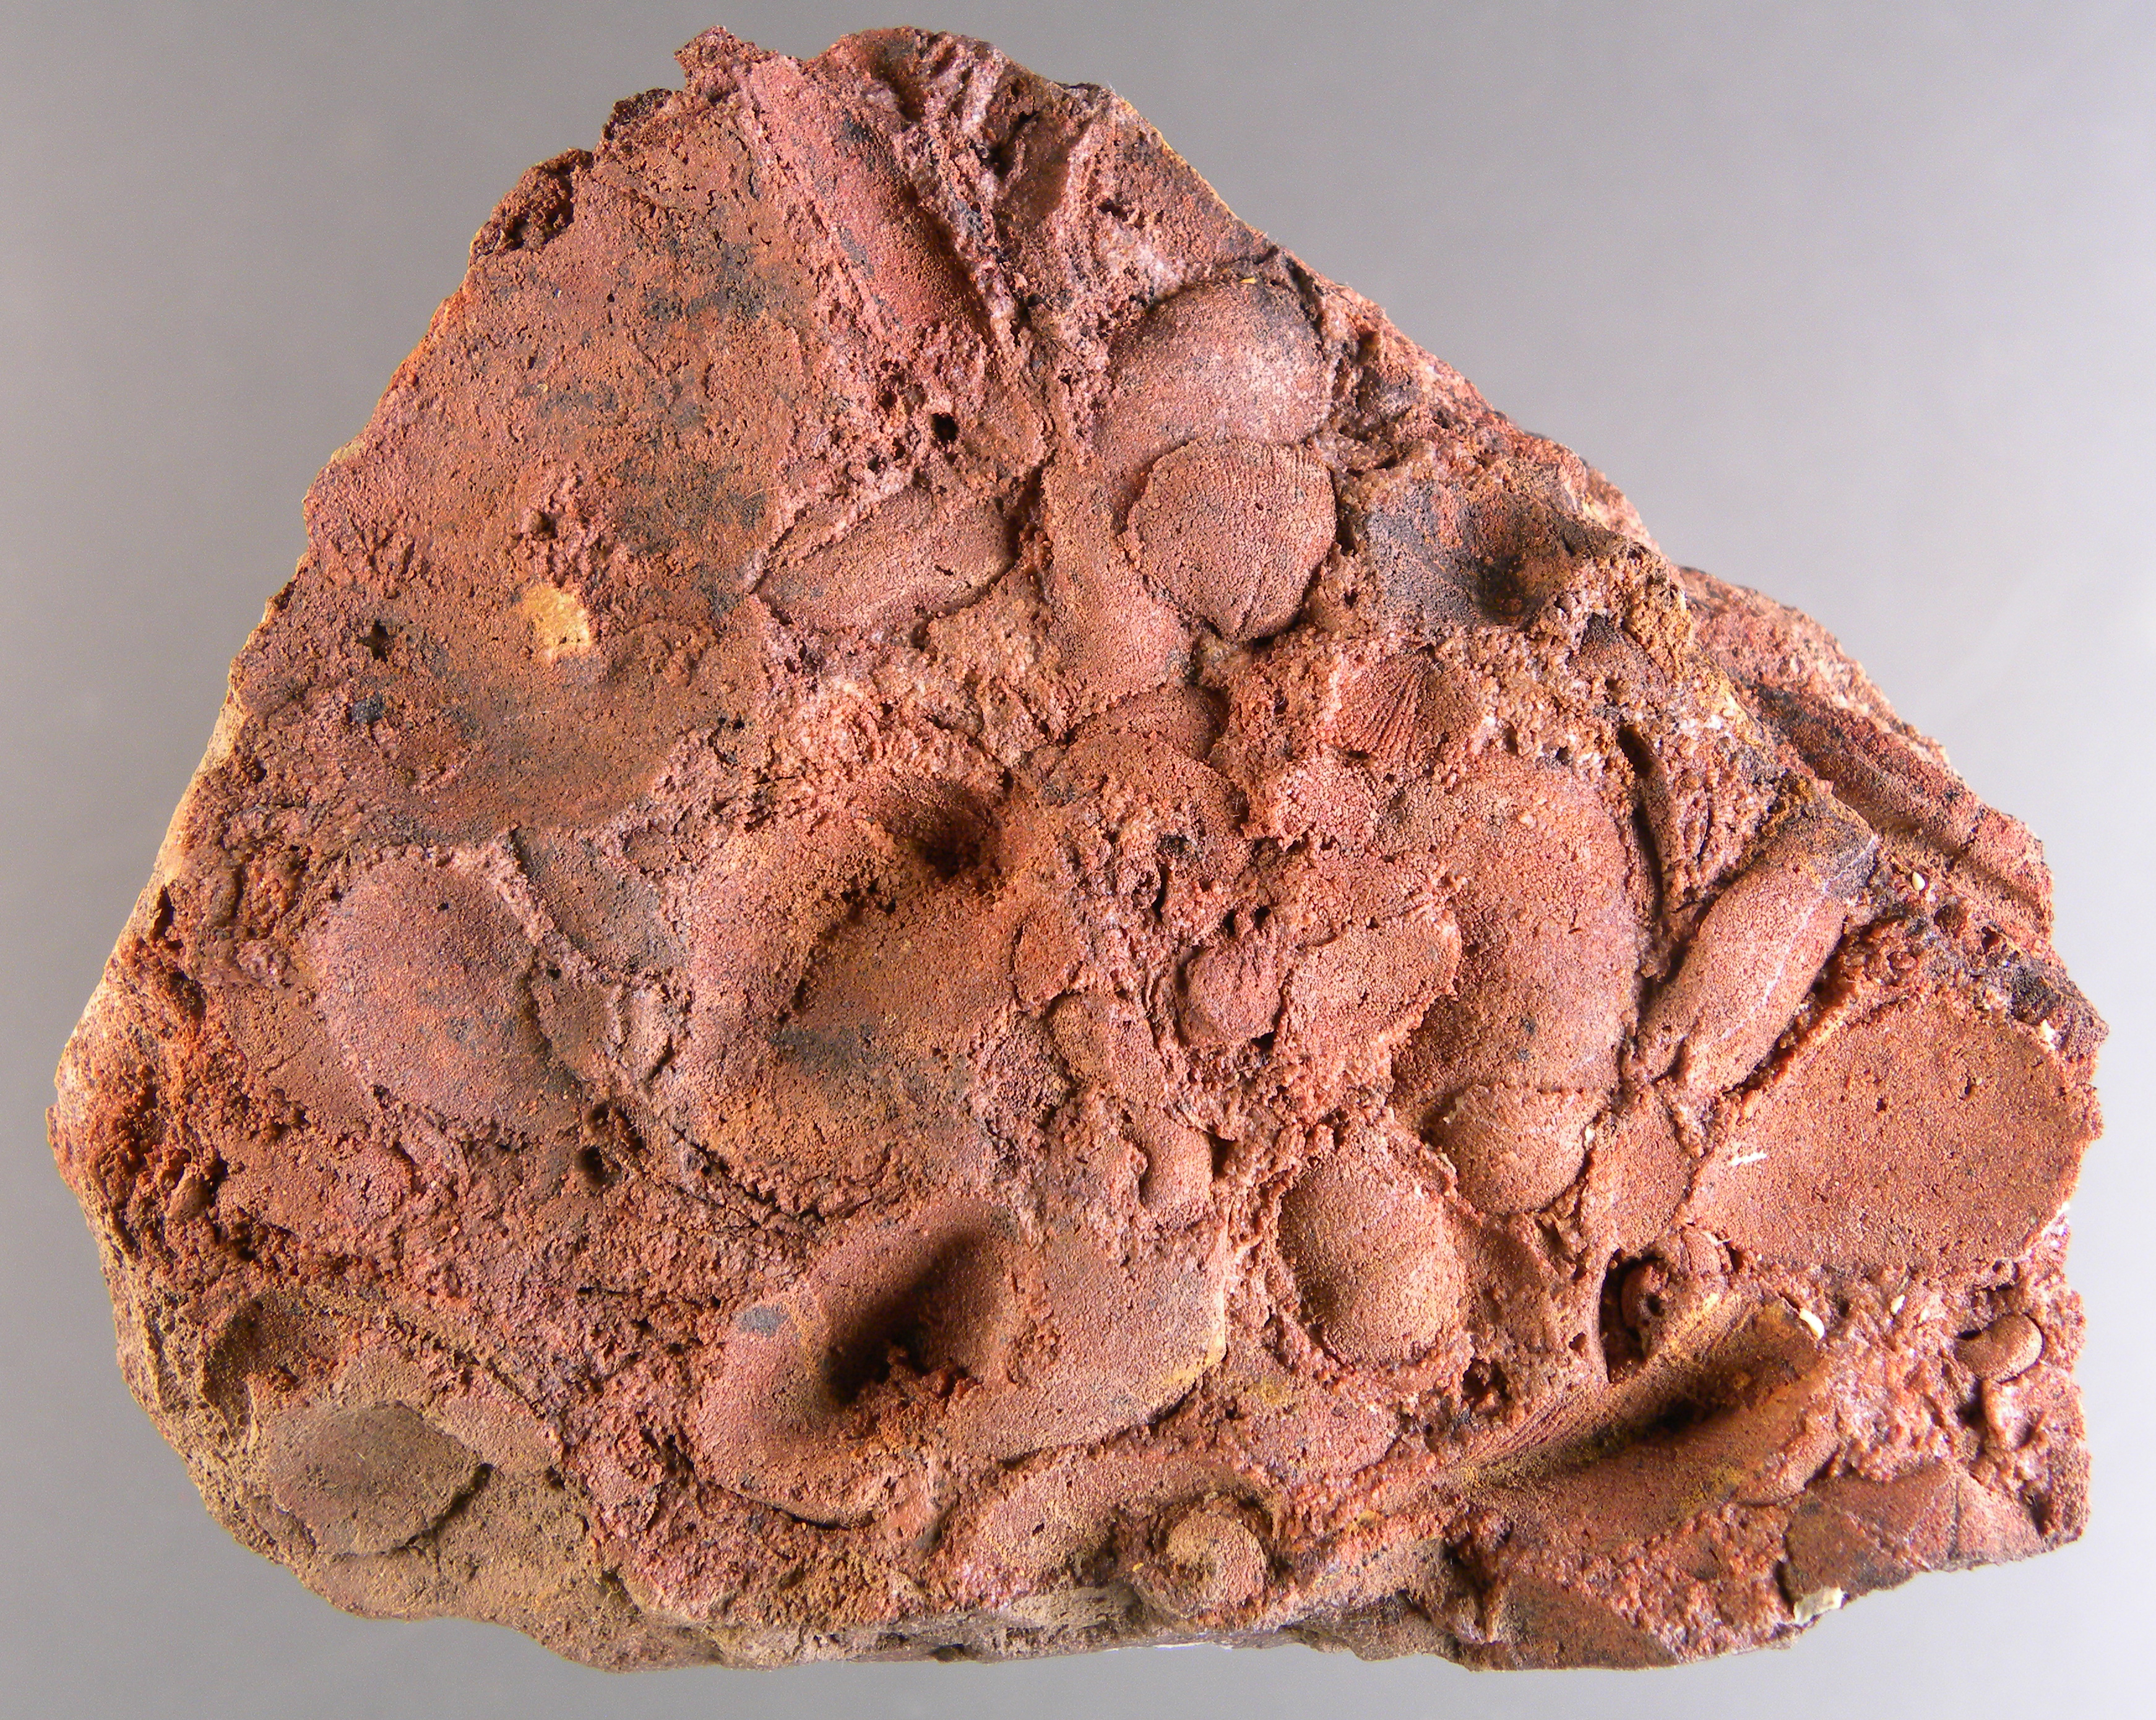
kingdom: Animalia
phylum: Mollusca
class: Bivalvia
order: Modiomorphida
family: Modiomorphidae
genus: Goniophora
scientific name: Goniophora
